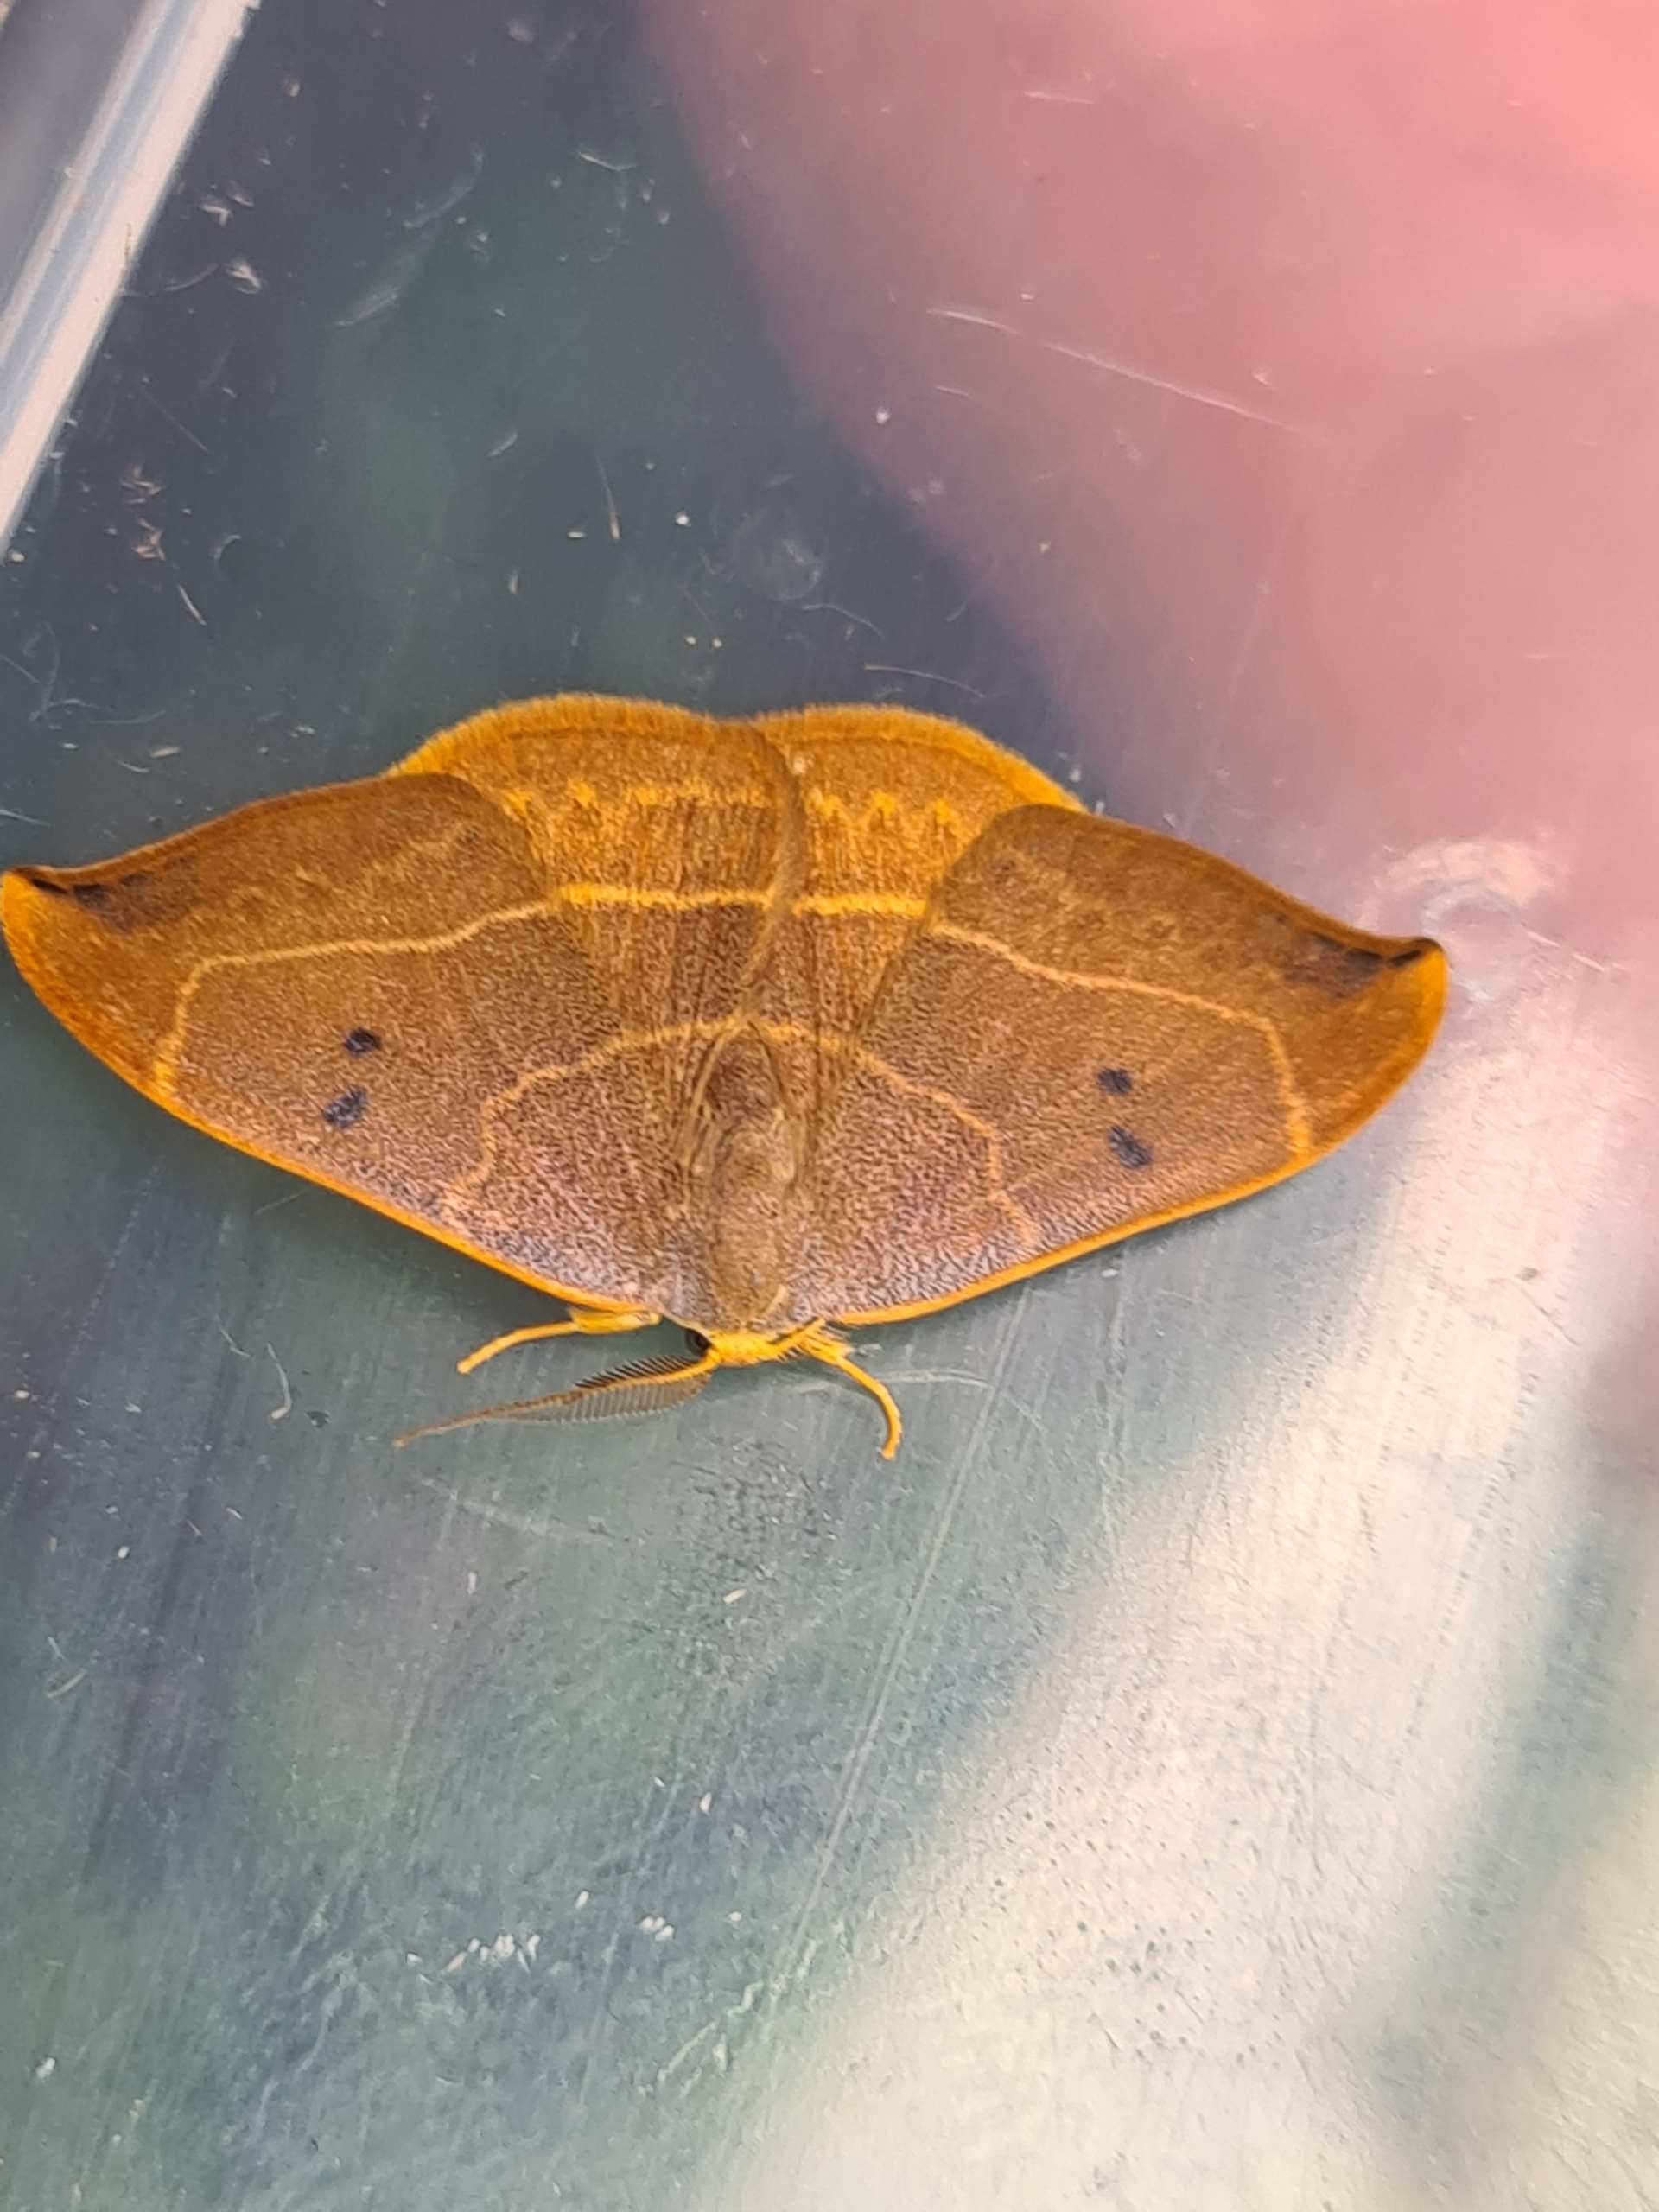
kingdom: Animalia
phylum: Arthropoda
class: Insecta
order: Lepidoptera
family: Drepanidae
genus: Watsonalla
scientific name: Watsonalla binaria
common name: Toplettet seglvinge
